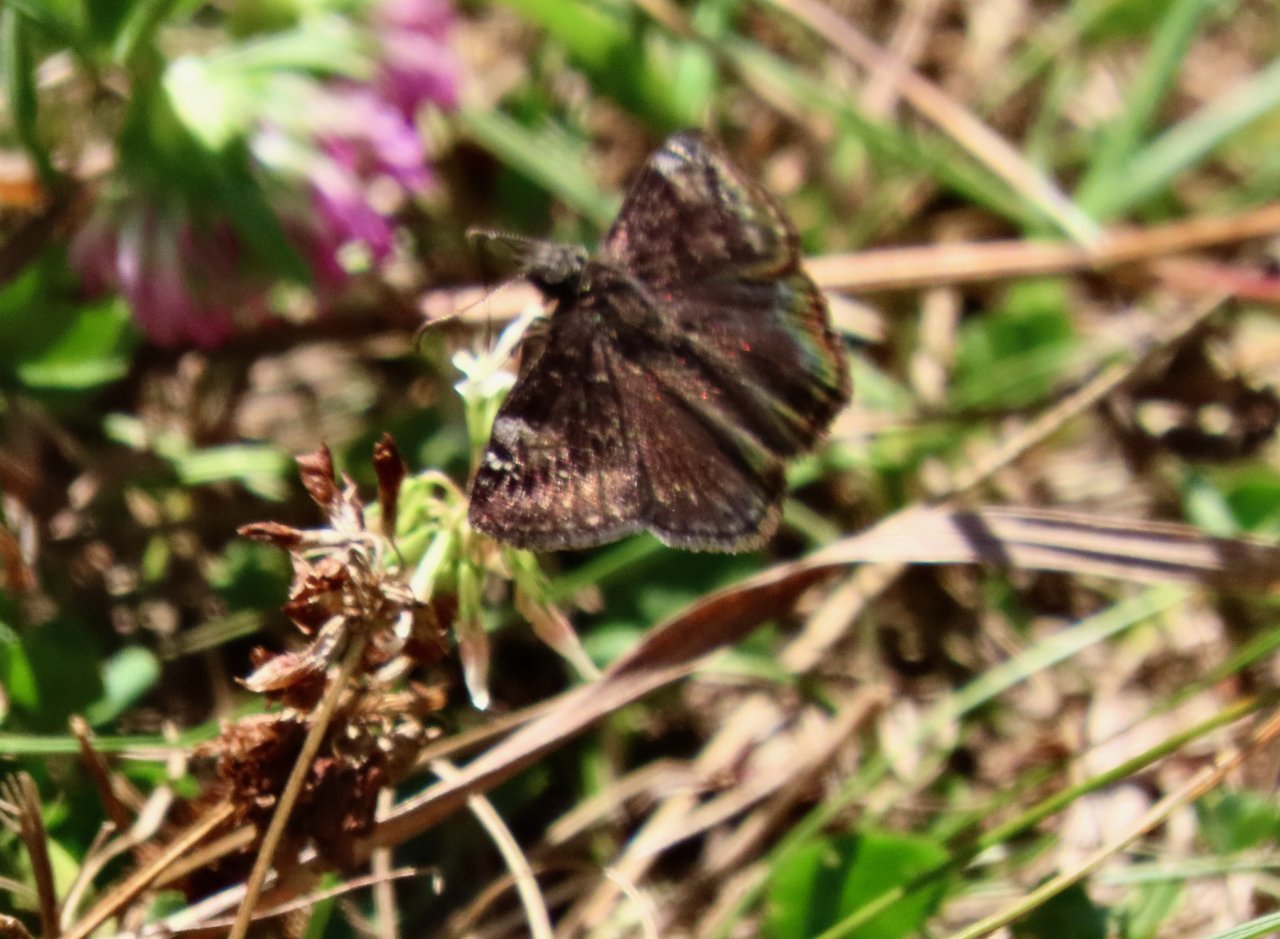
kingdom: Animalia
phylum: Arthropoda
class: Insecta
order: Lepidoptera
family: Hesperiidae
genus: Gesta
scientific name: Gesta
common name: Wild Indigo Duskywing
